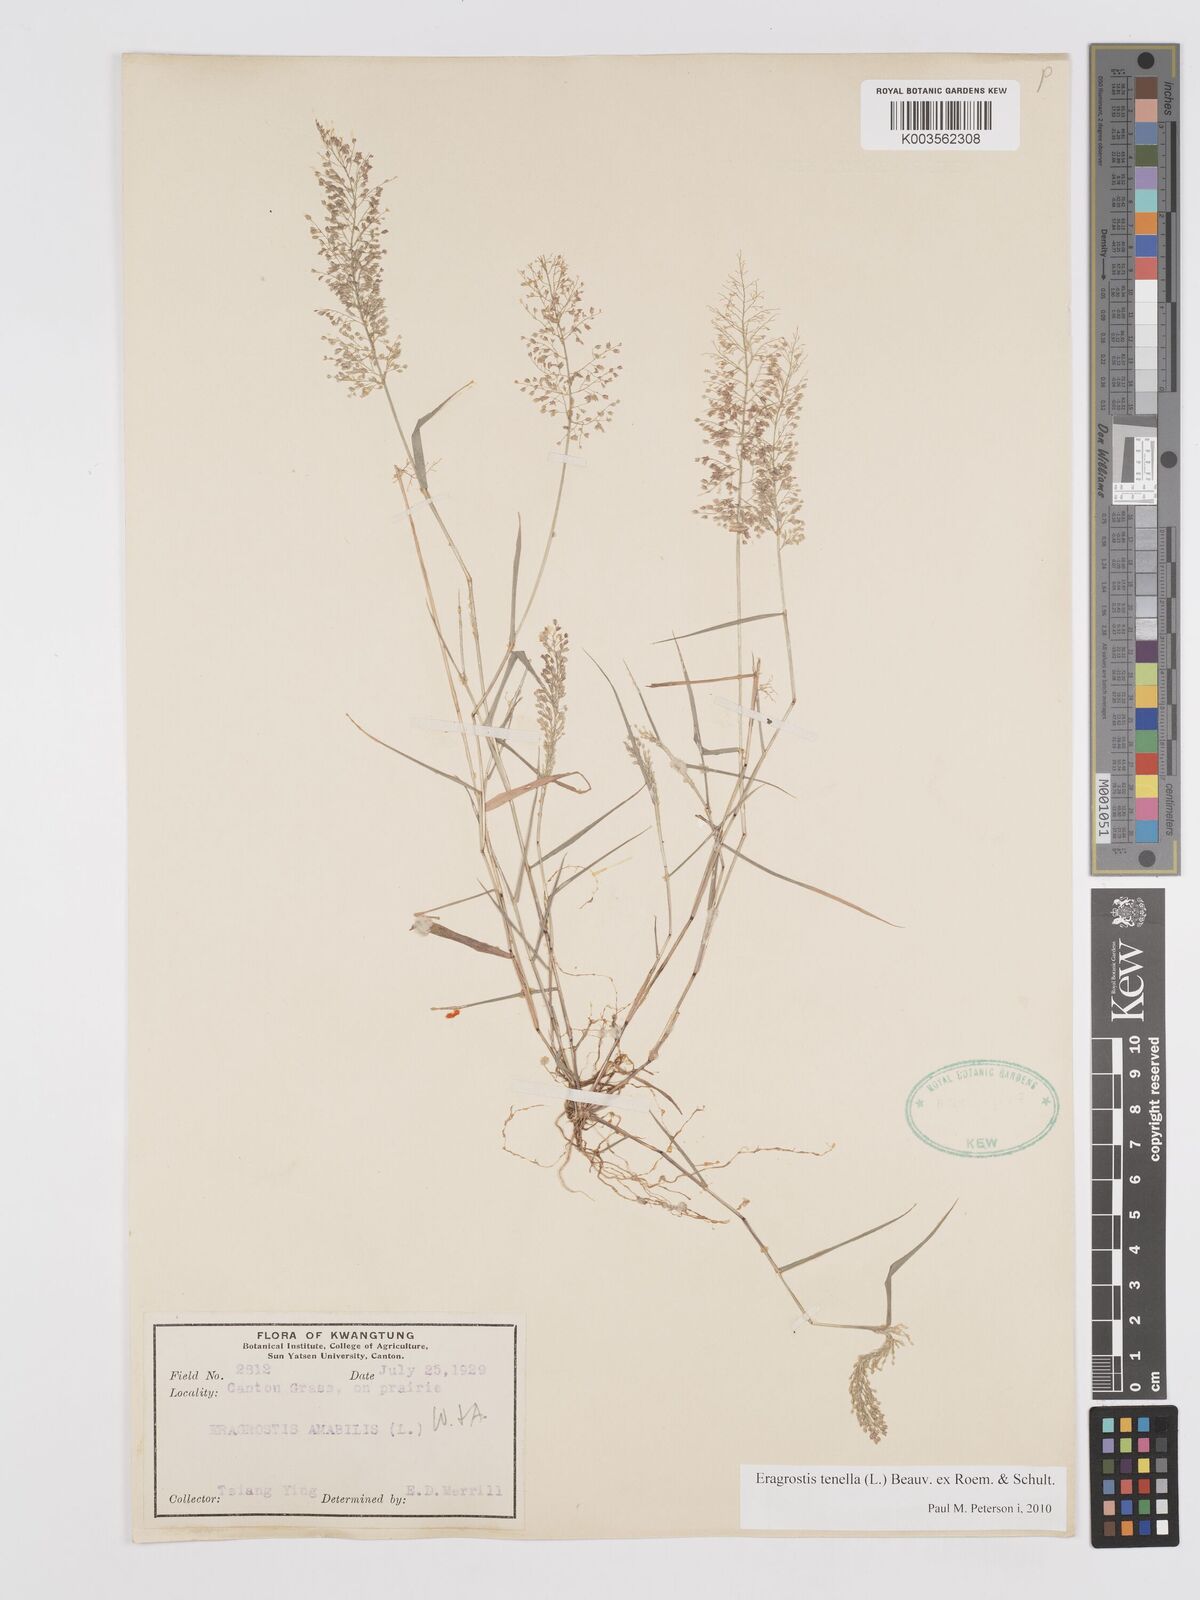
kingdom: Plantae
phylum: Tracheophyta
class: Liliopsida
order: Poales
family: Poaceae
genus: Eragrostis
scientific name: Eragrostis tenella
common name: Japanese lovegrass
